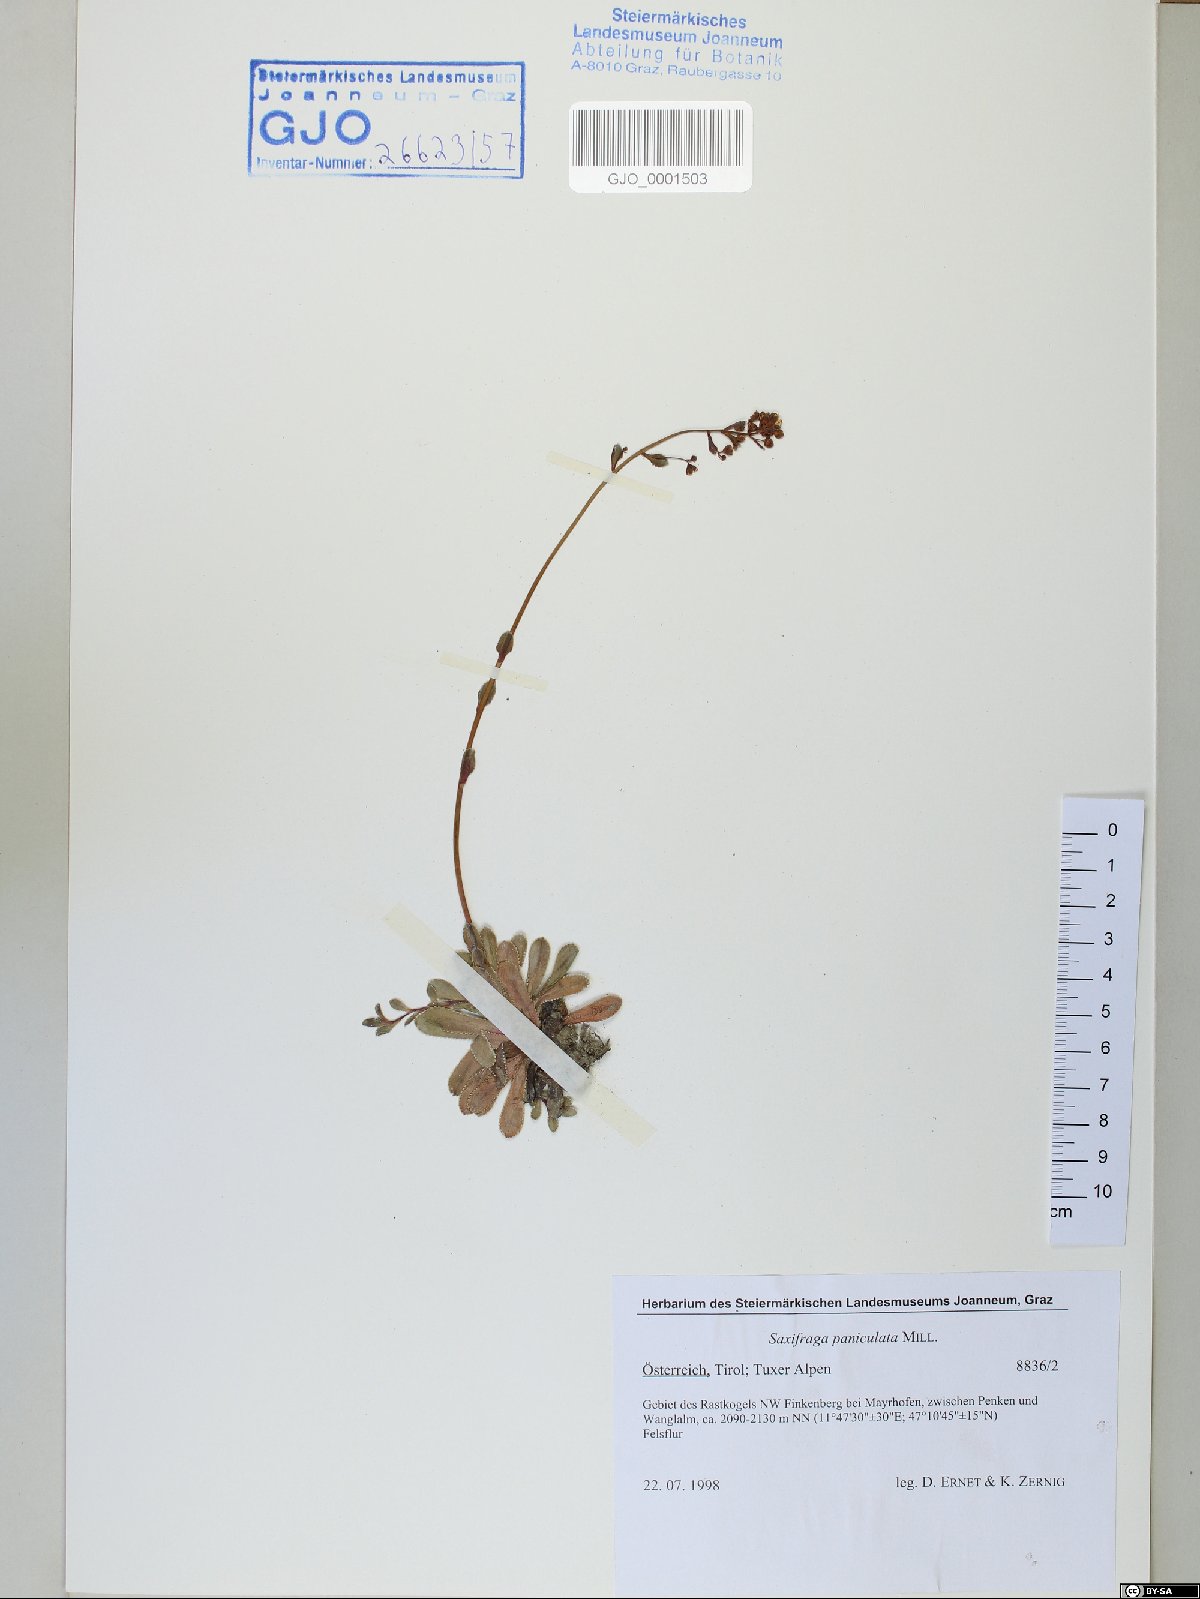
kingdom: Plantae
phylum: Tracheophyta
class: Magnoliopsida
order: Saxifragales
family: Saxifragaceae
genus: Saxifraga
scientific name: Saxifraga paniculata
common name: Livelong saxifrage
